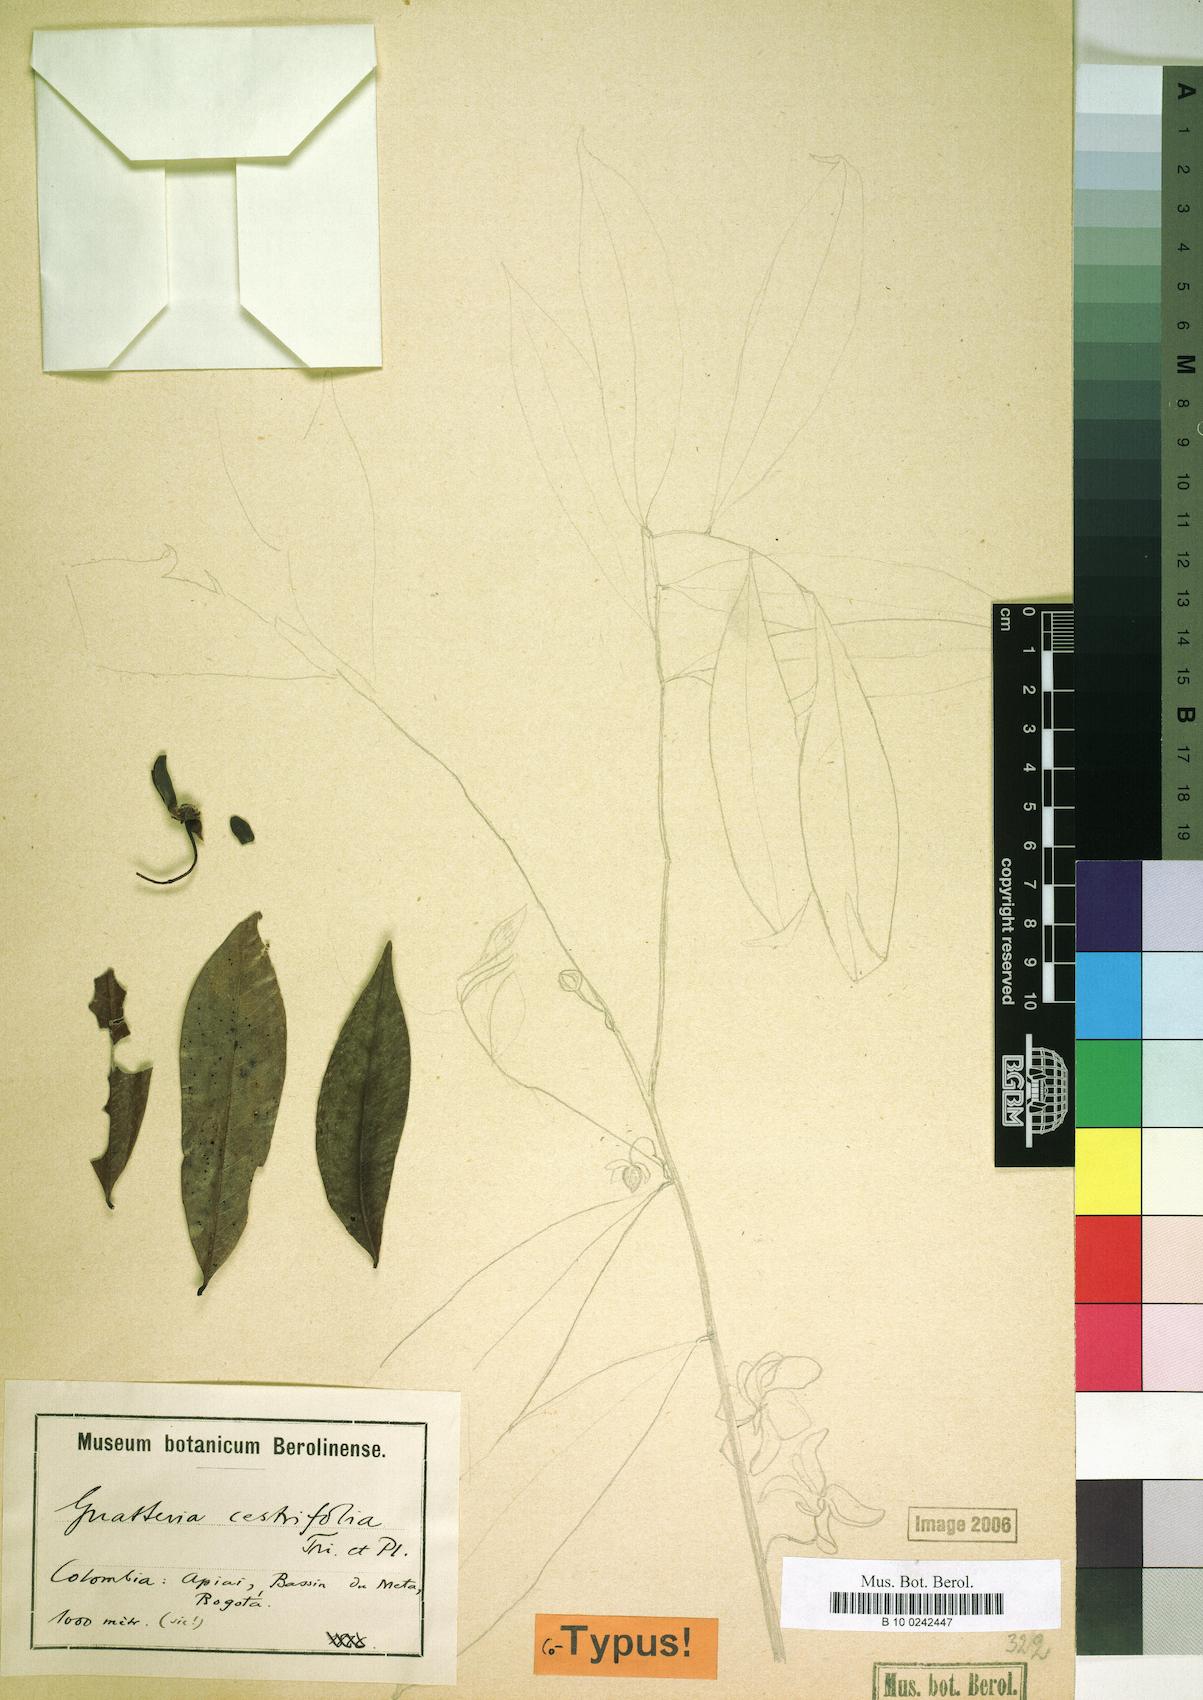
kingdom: Plantae
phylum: Tracheophyta
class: Magnoliopsida
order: Magnoliales
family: Annonaceae
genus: Guatteria
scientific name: Guatteria cestrifolia
